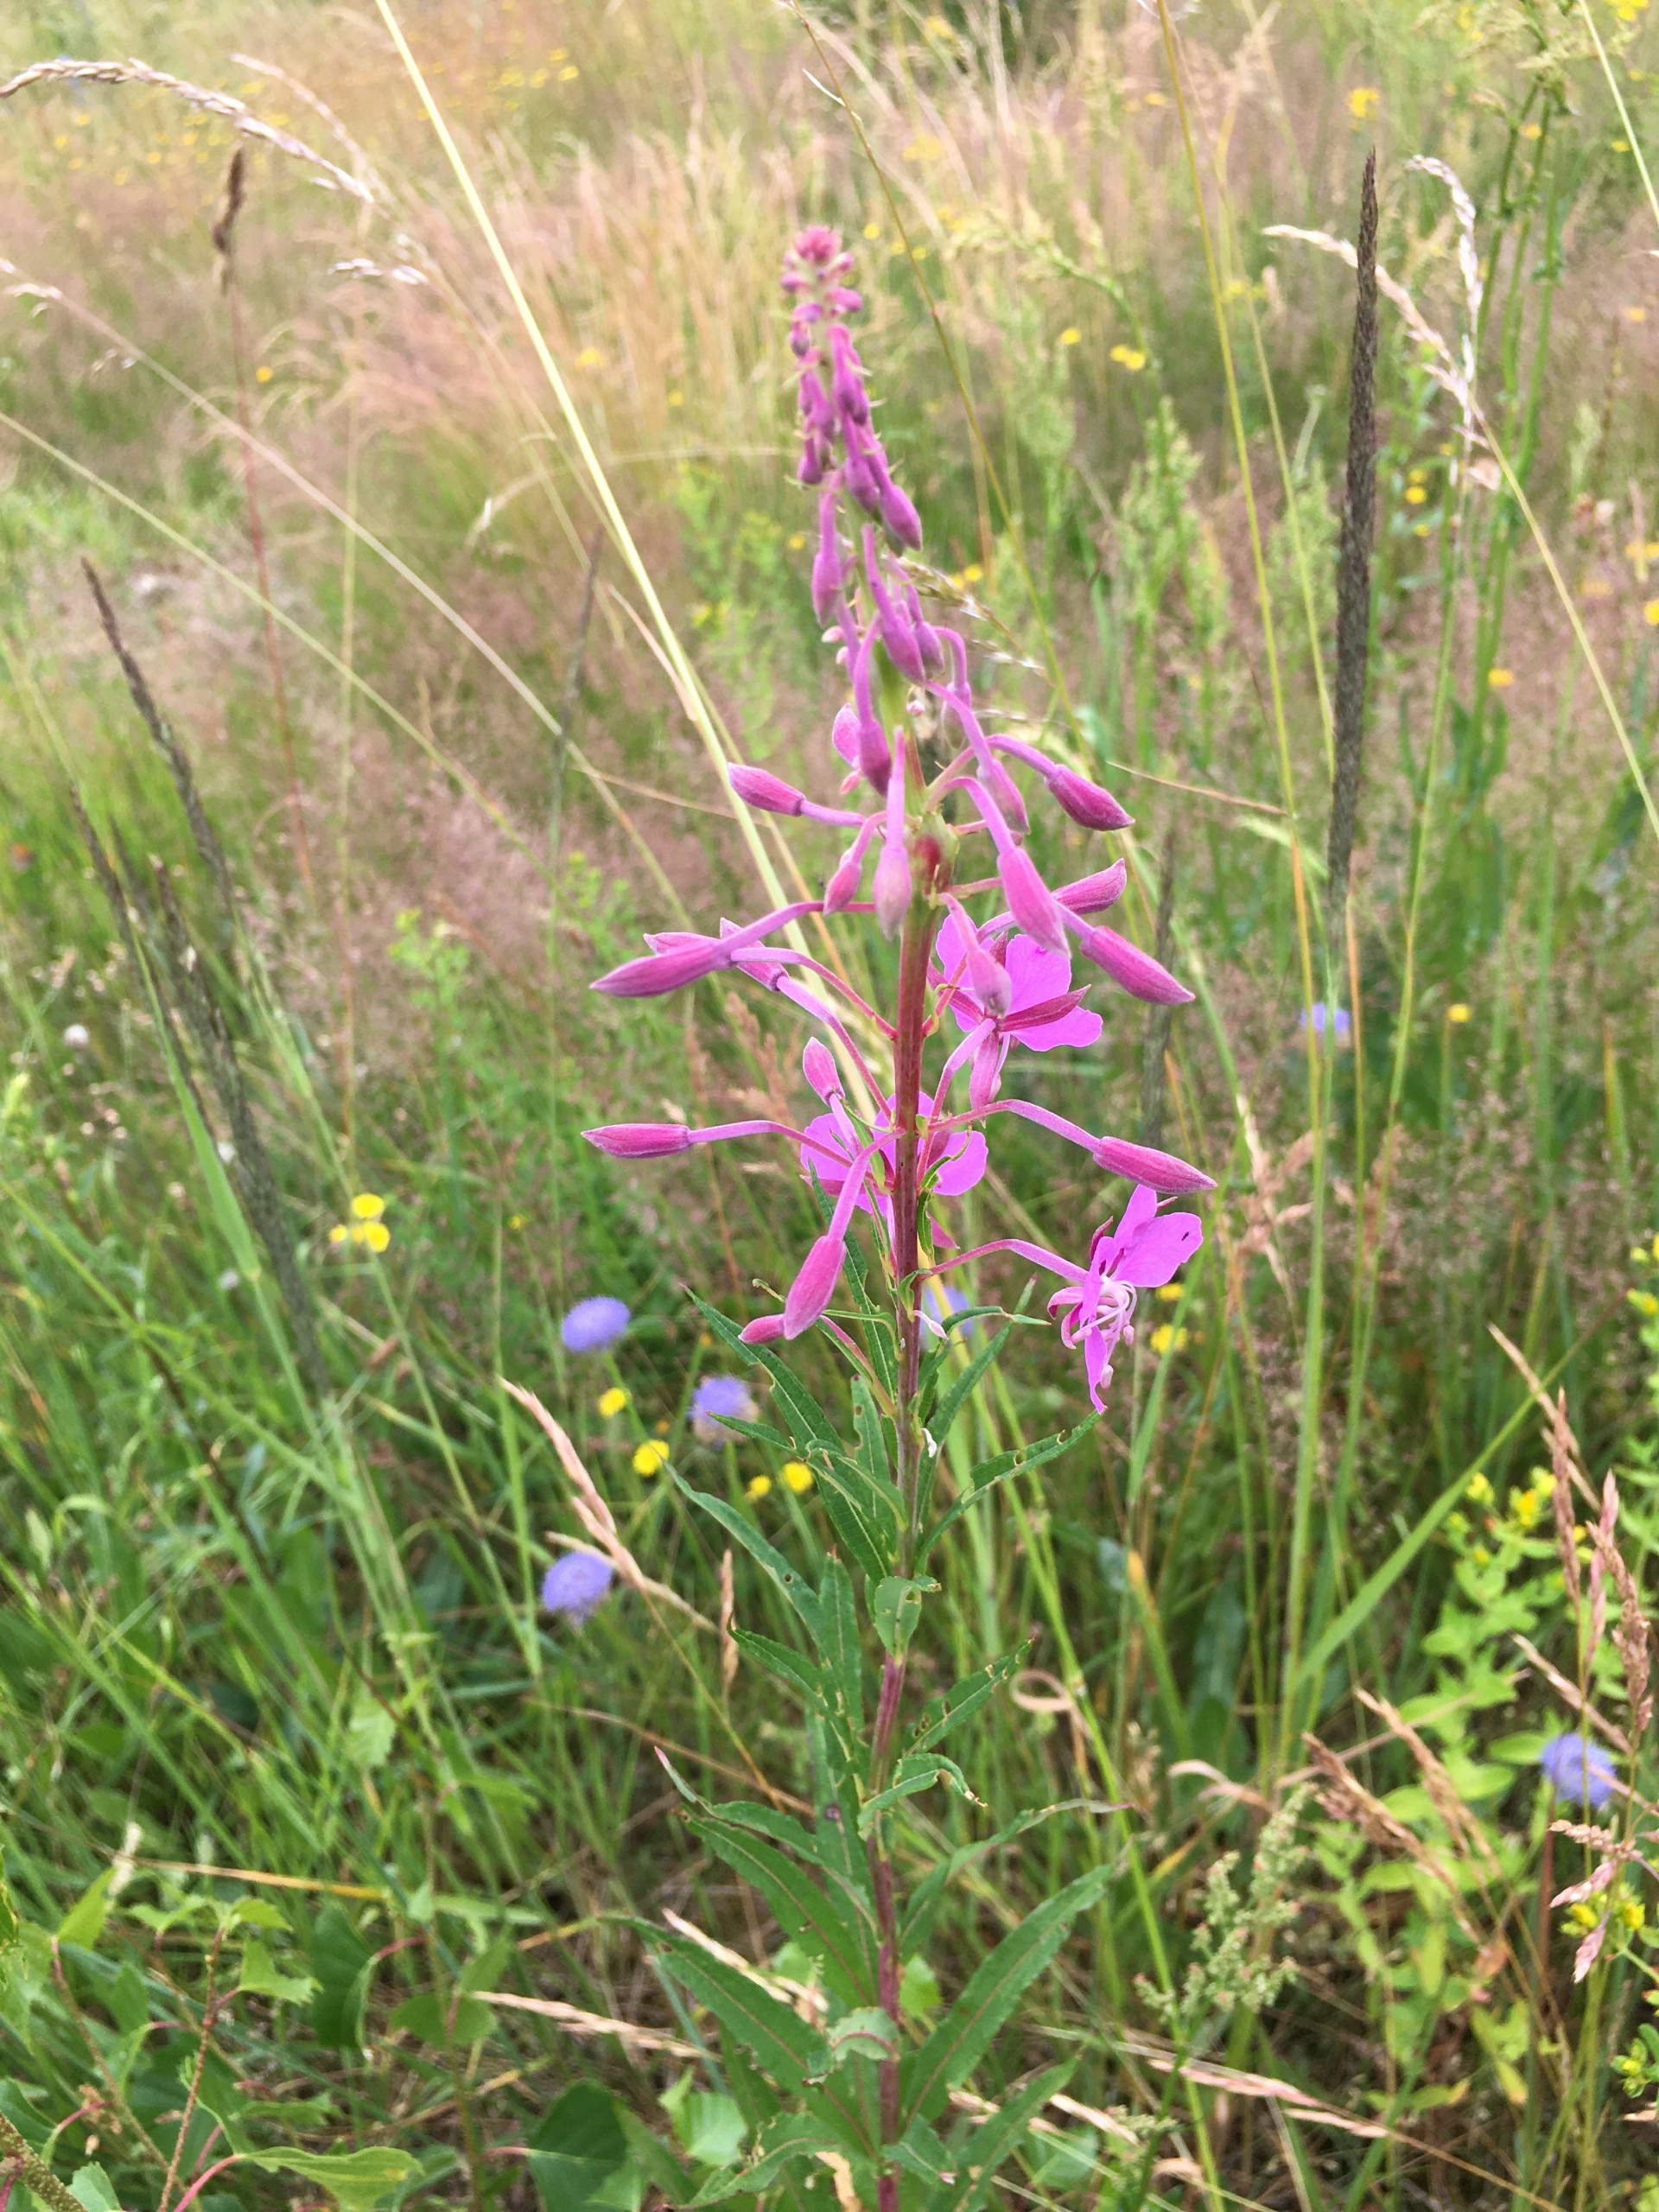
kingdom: Plantae
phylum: Tracheophyta
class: Magnoliopsida
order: Myrtales
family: Onagraceae
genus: Chamaenerion
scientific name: Chamaenerion angustifolium
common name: Gederams
